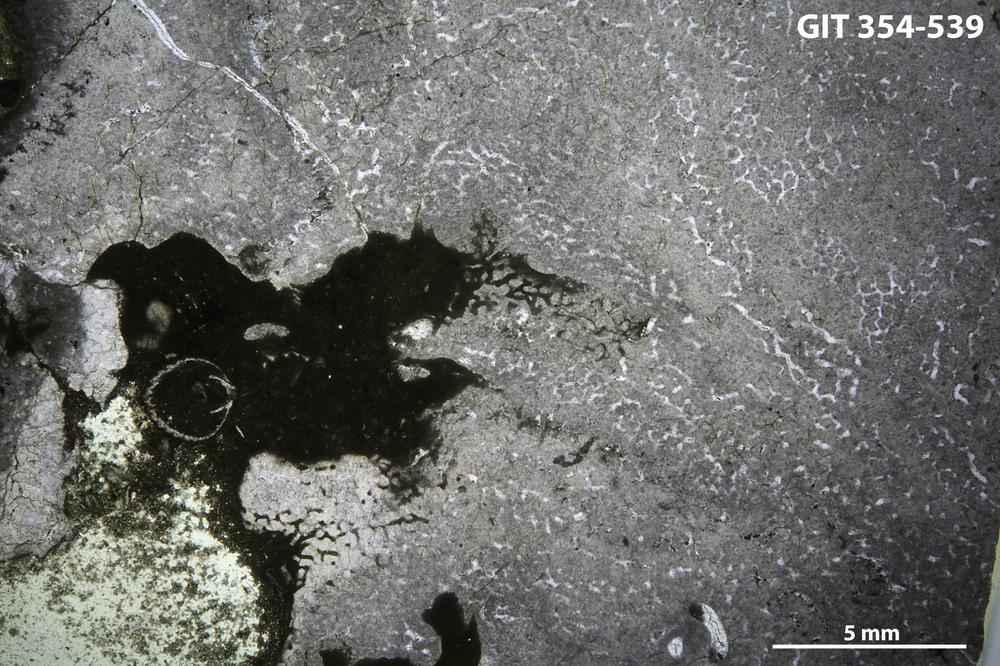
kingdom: Animalia
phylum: Porifera
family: Stromatoporidae
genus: Eostromatopora
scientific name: Eostromatopora
